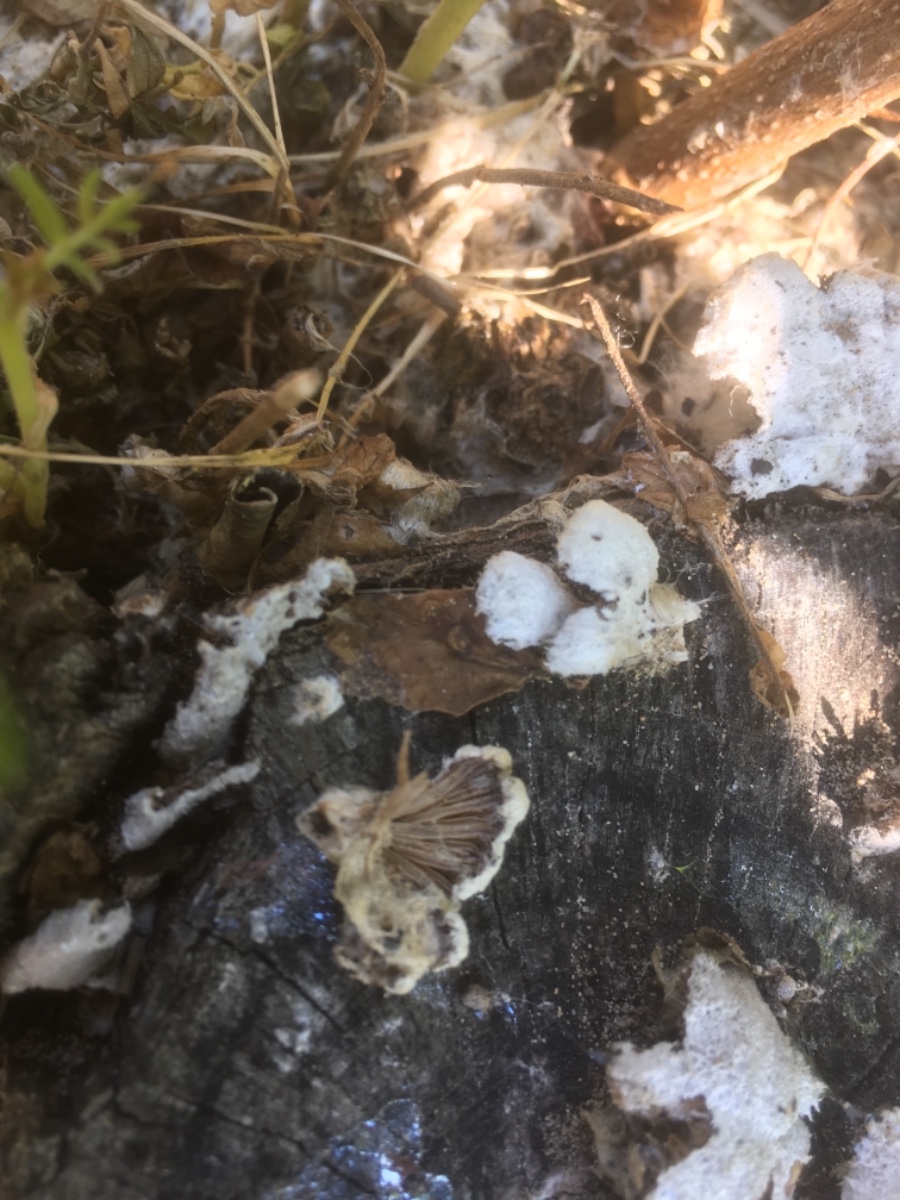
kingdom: Fungi
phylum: Basidiomycota
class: Agaricomycetes
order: Agaricales
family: Schizophyllaceae
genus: Schizophyllum
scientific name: Schizophyllum commune
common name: kløvblad
